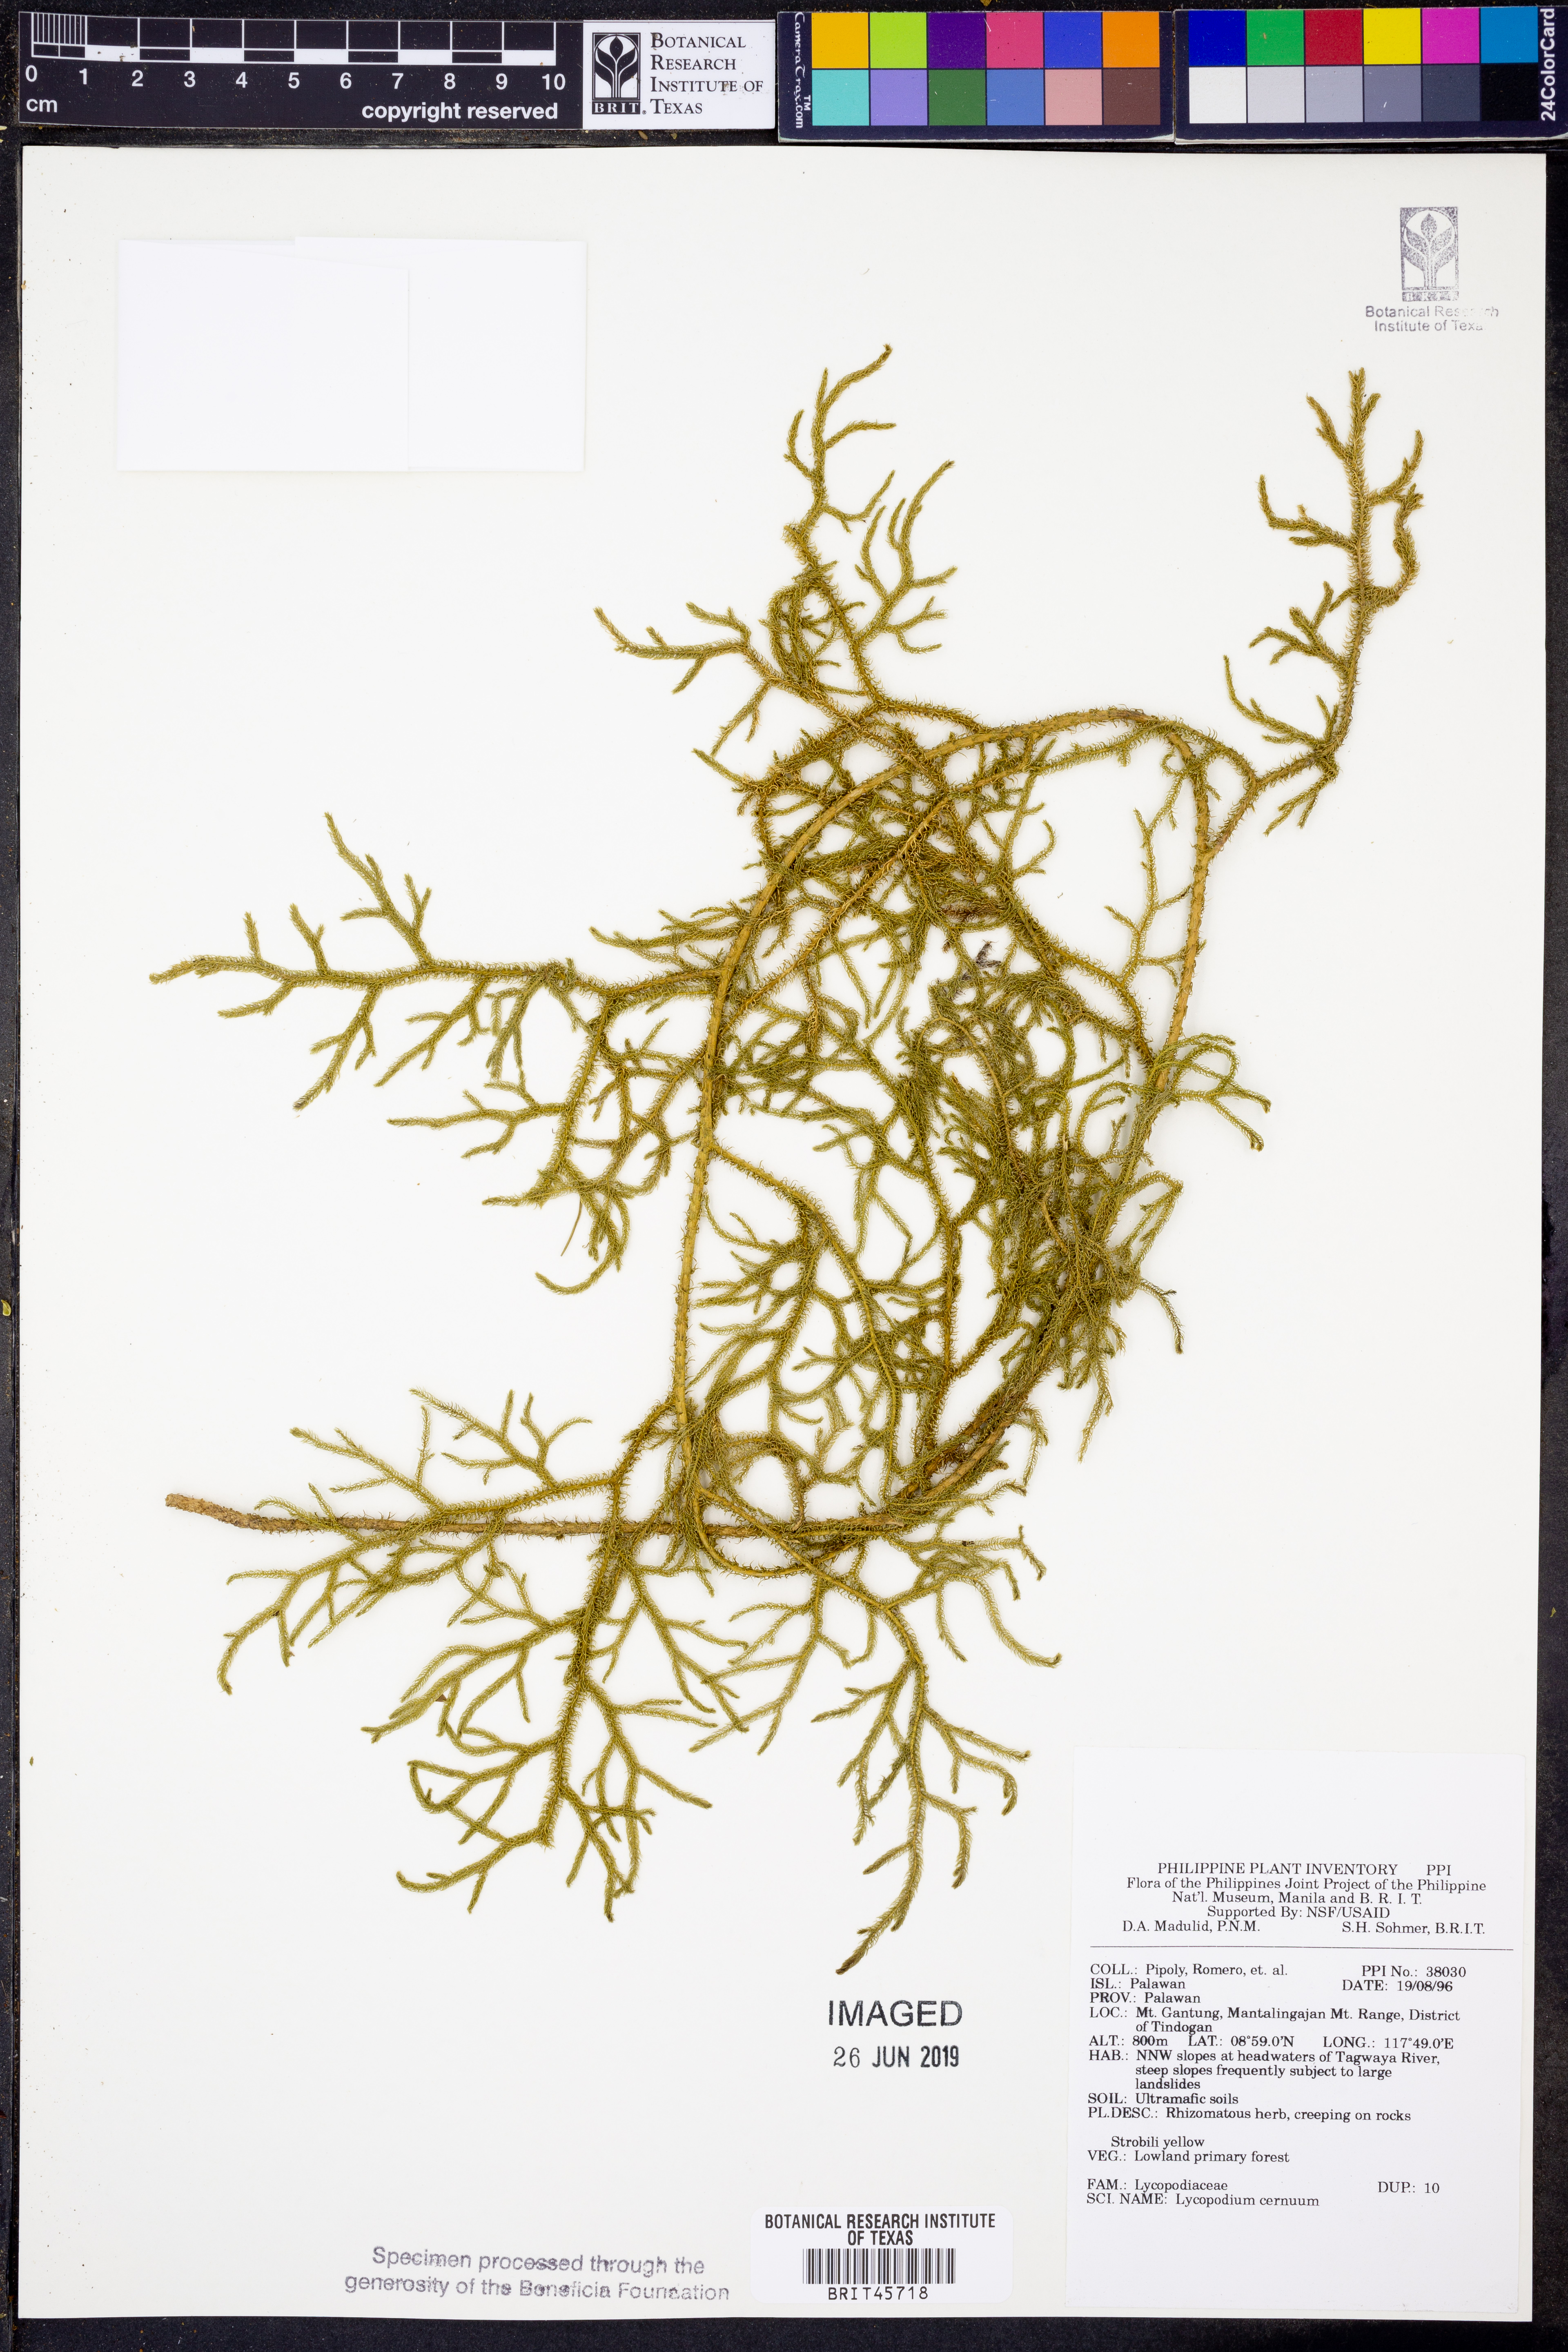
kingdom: Plantae
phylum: Tracheophyta
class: Lycopodiopsida
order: Lycopodiales
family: Lycopodiaceae
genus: Palhinhaea
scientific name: Palhinhaea cernua
